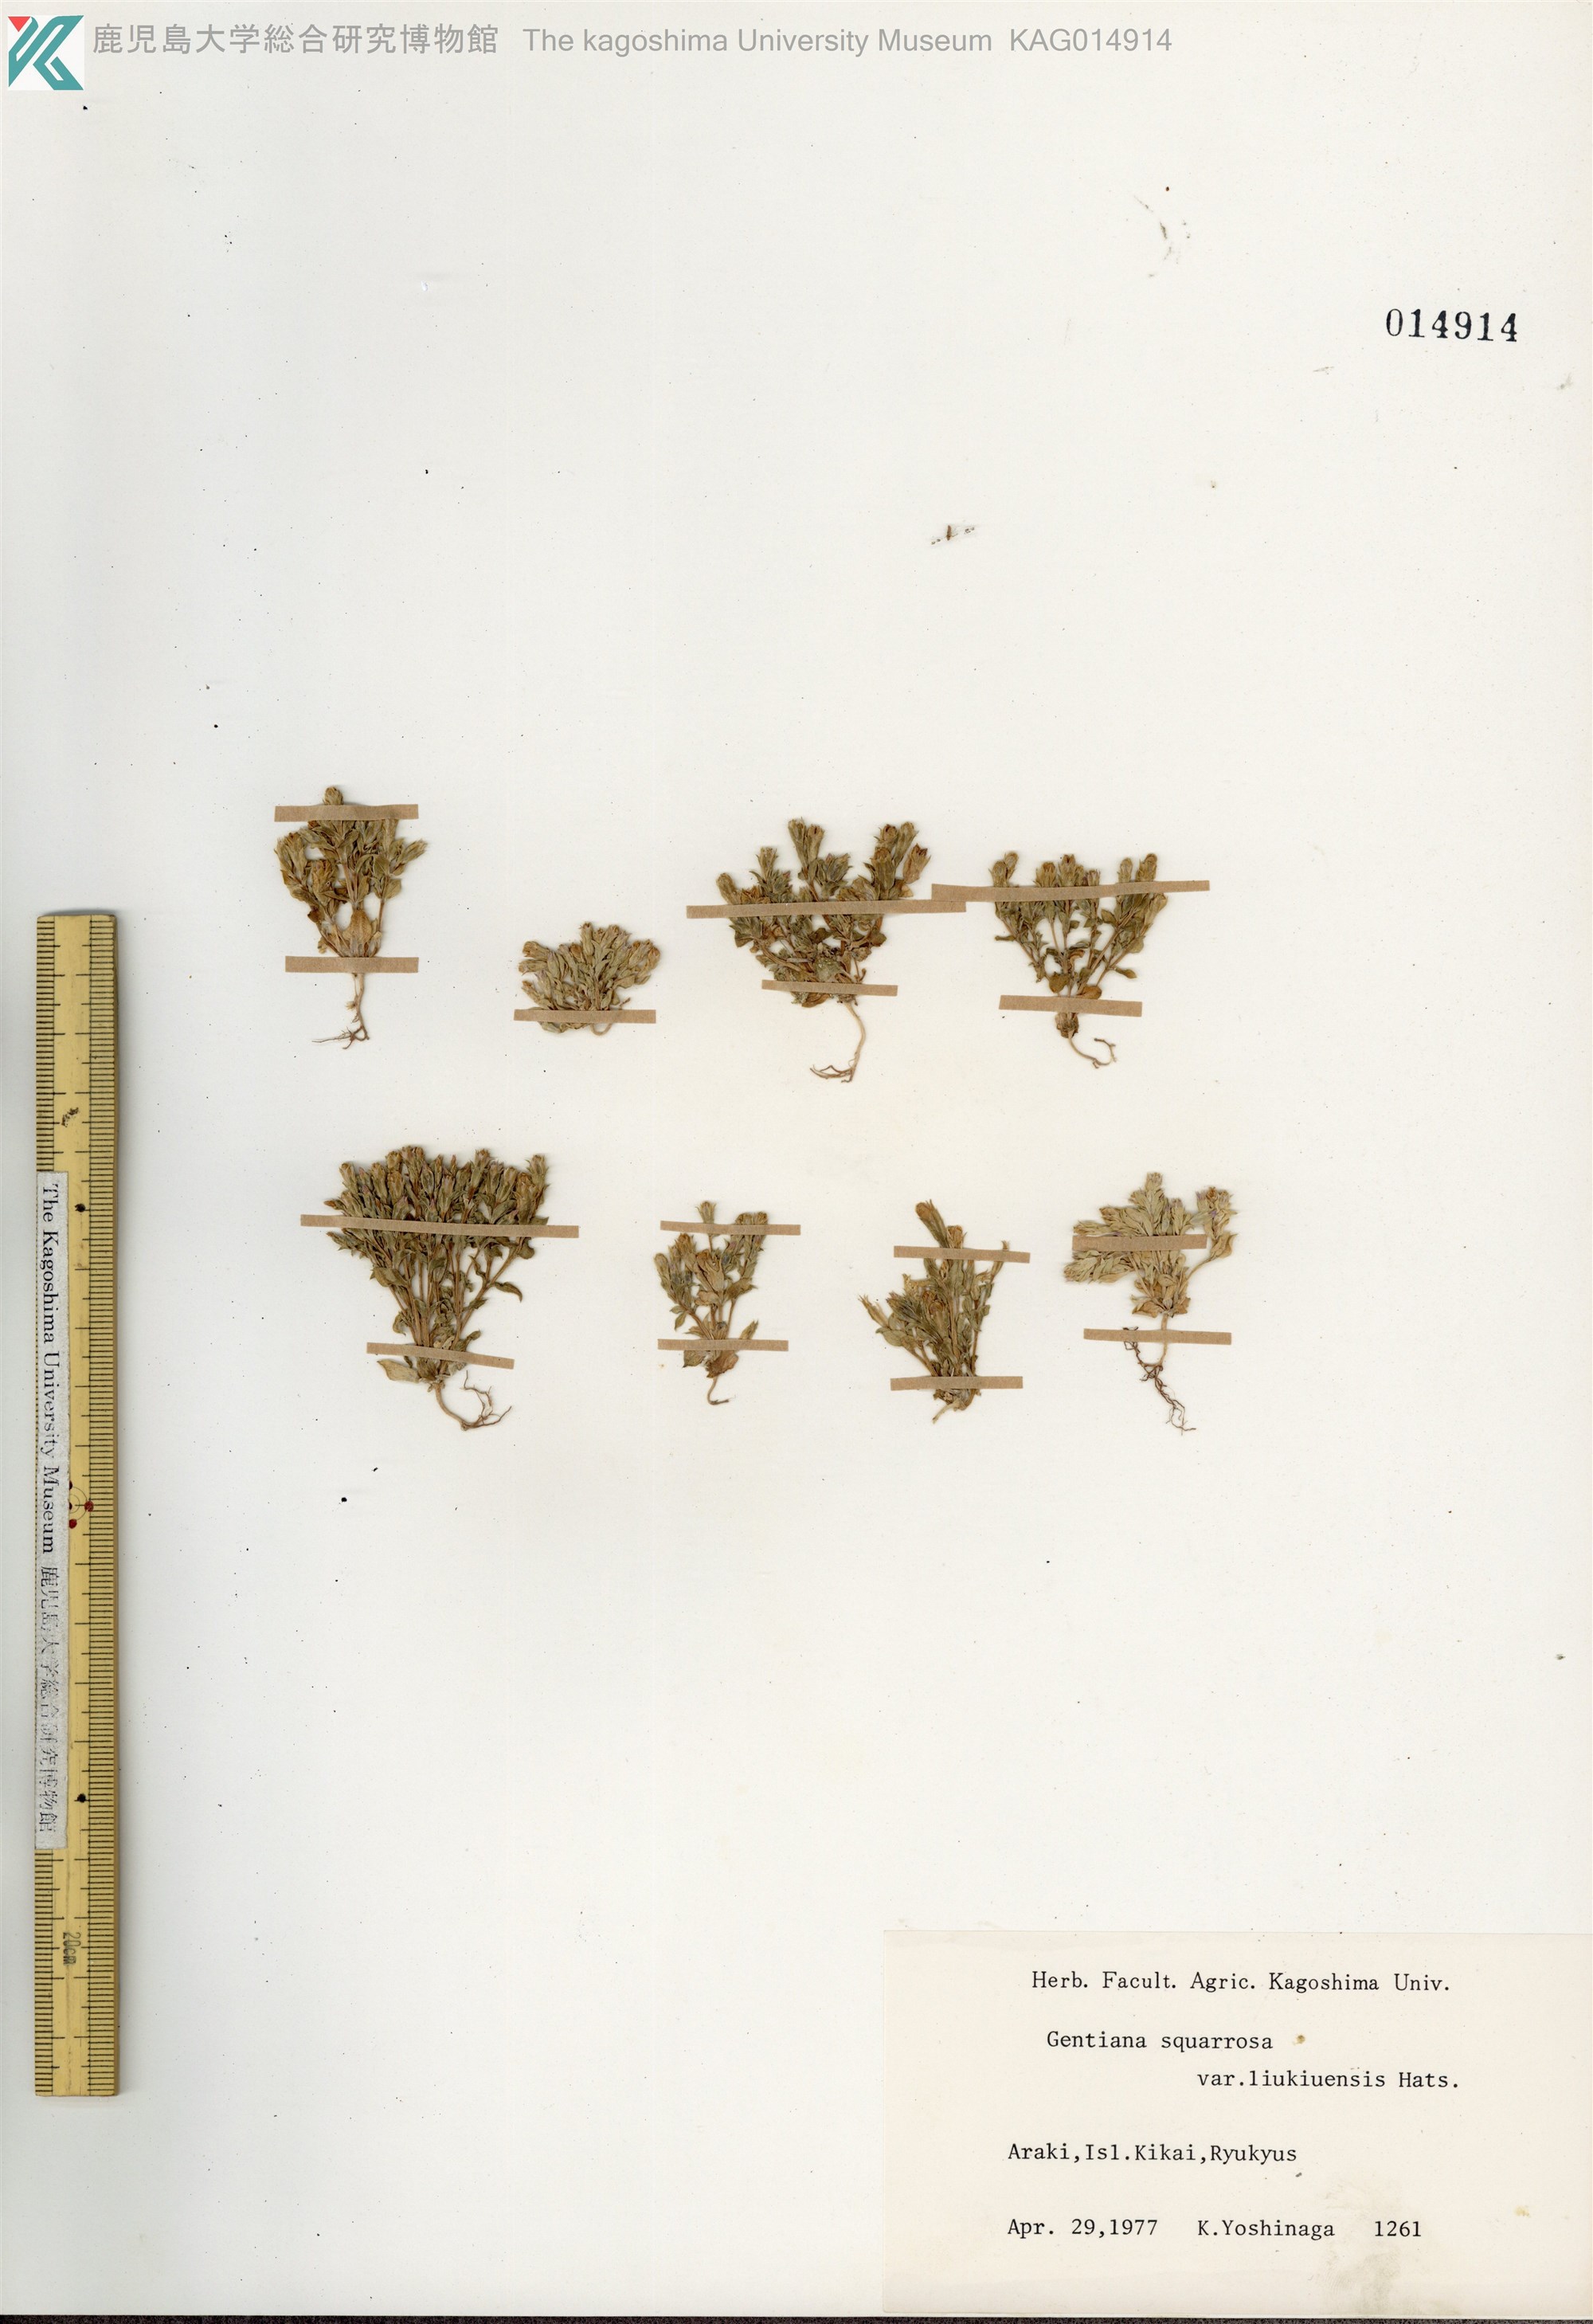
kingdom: Plantae
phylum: Tracheophyta
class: Magnoliopsida
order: Gentianales
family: Gentianaceae
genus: Gentiana
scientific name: Gentiana satsunanensis
